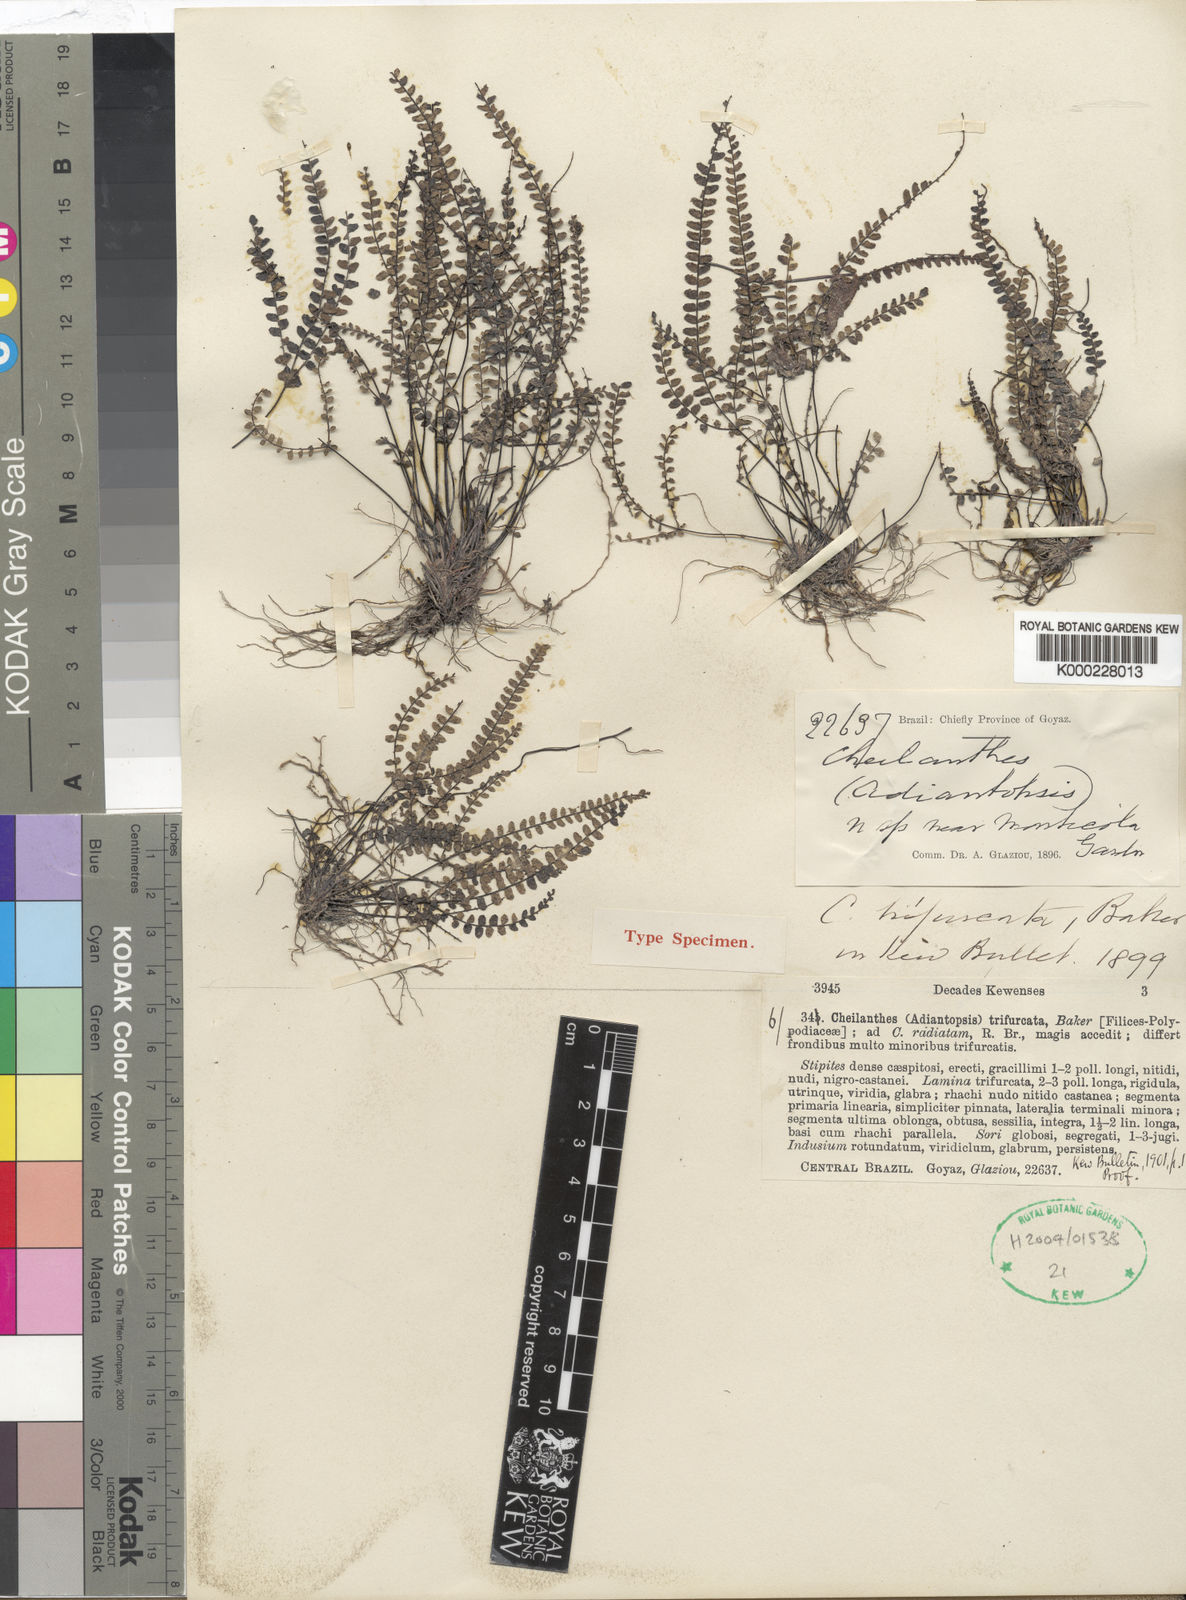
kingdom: Plantae
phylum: Tracheophyta
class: Polypodiopsida
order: Polypodiales
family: Pteridaceae
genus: Adiantopsis
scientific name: Adiantopsis trifurcata
